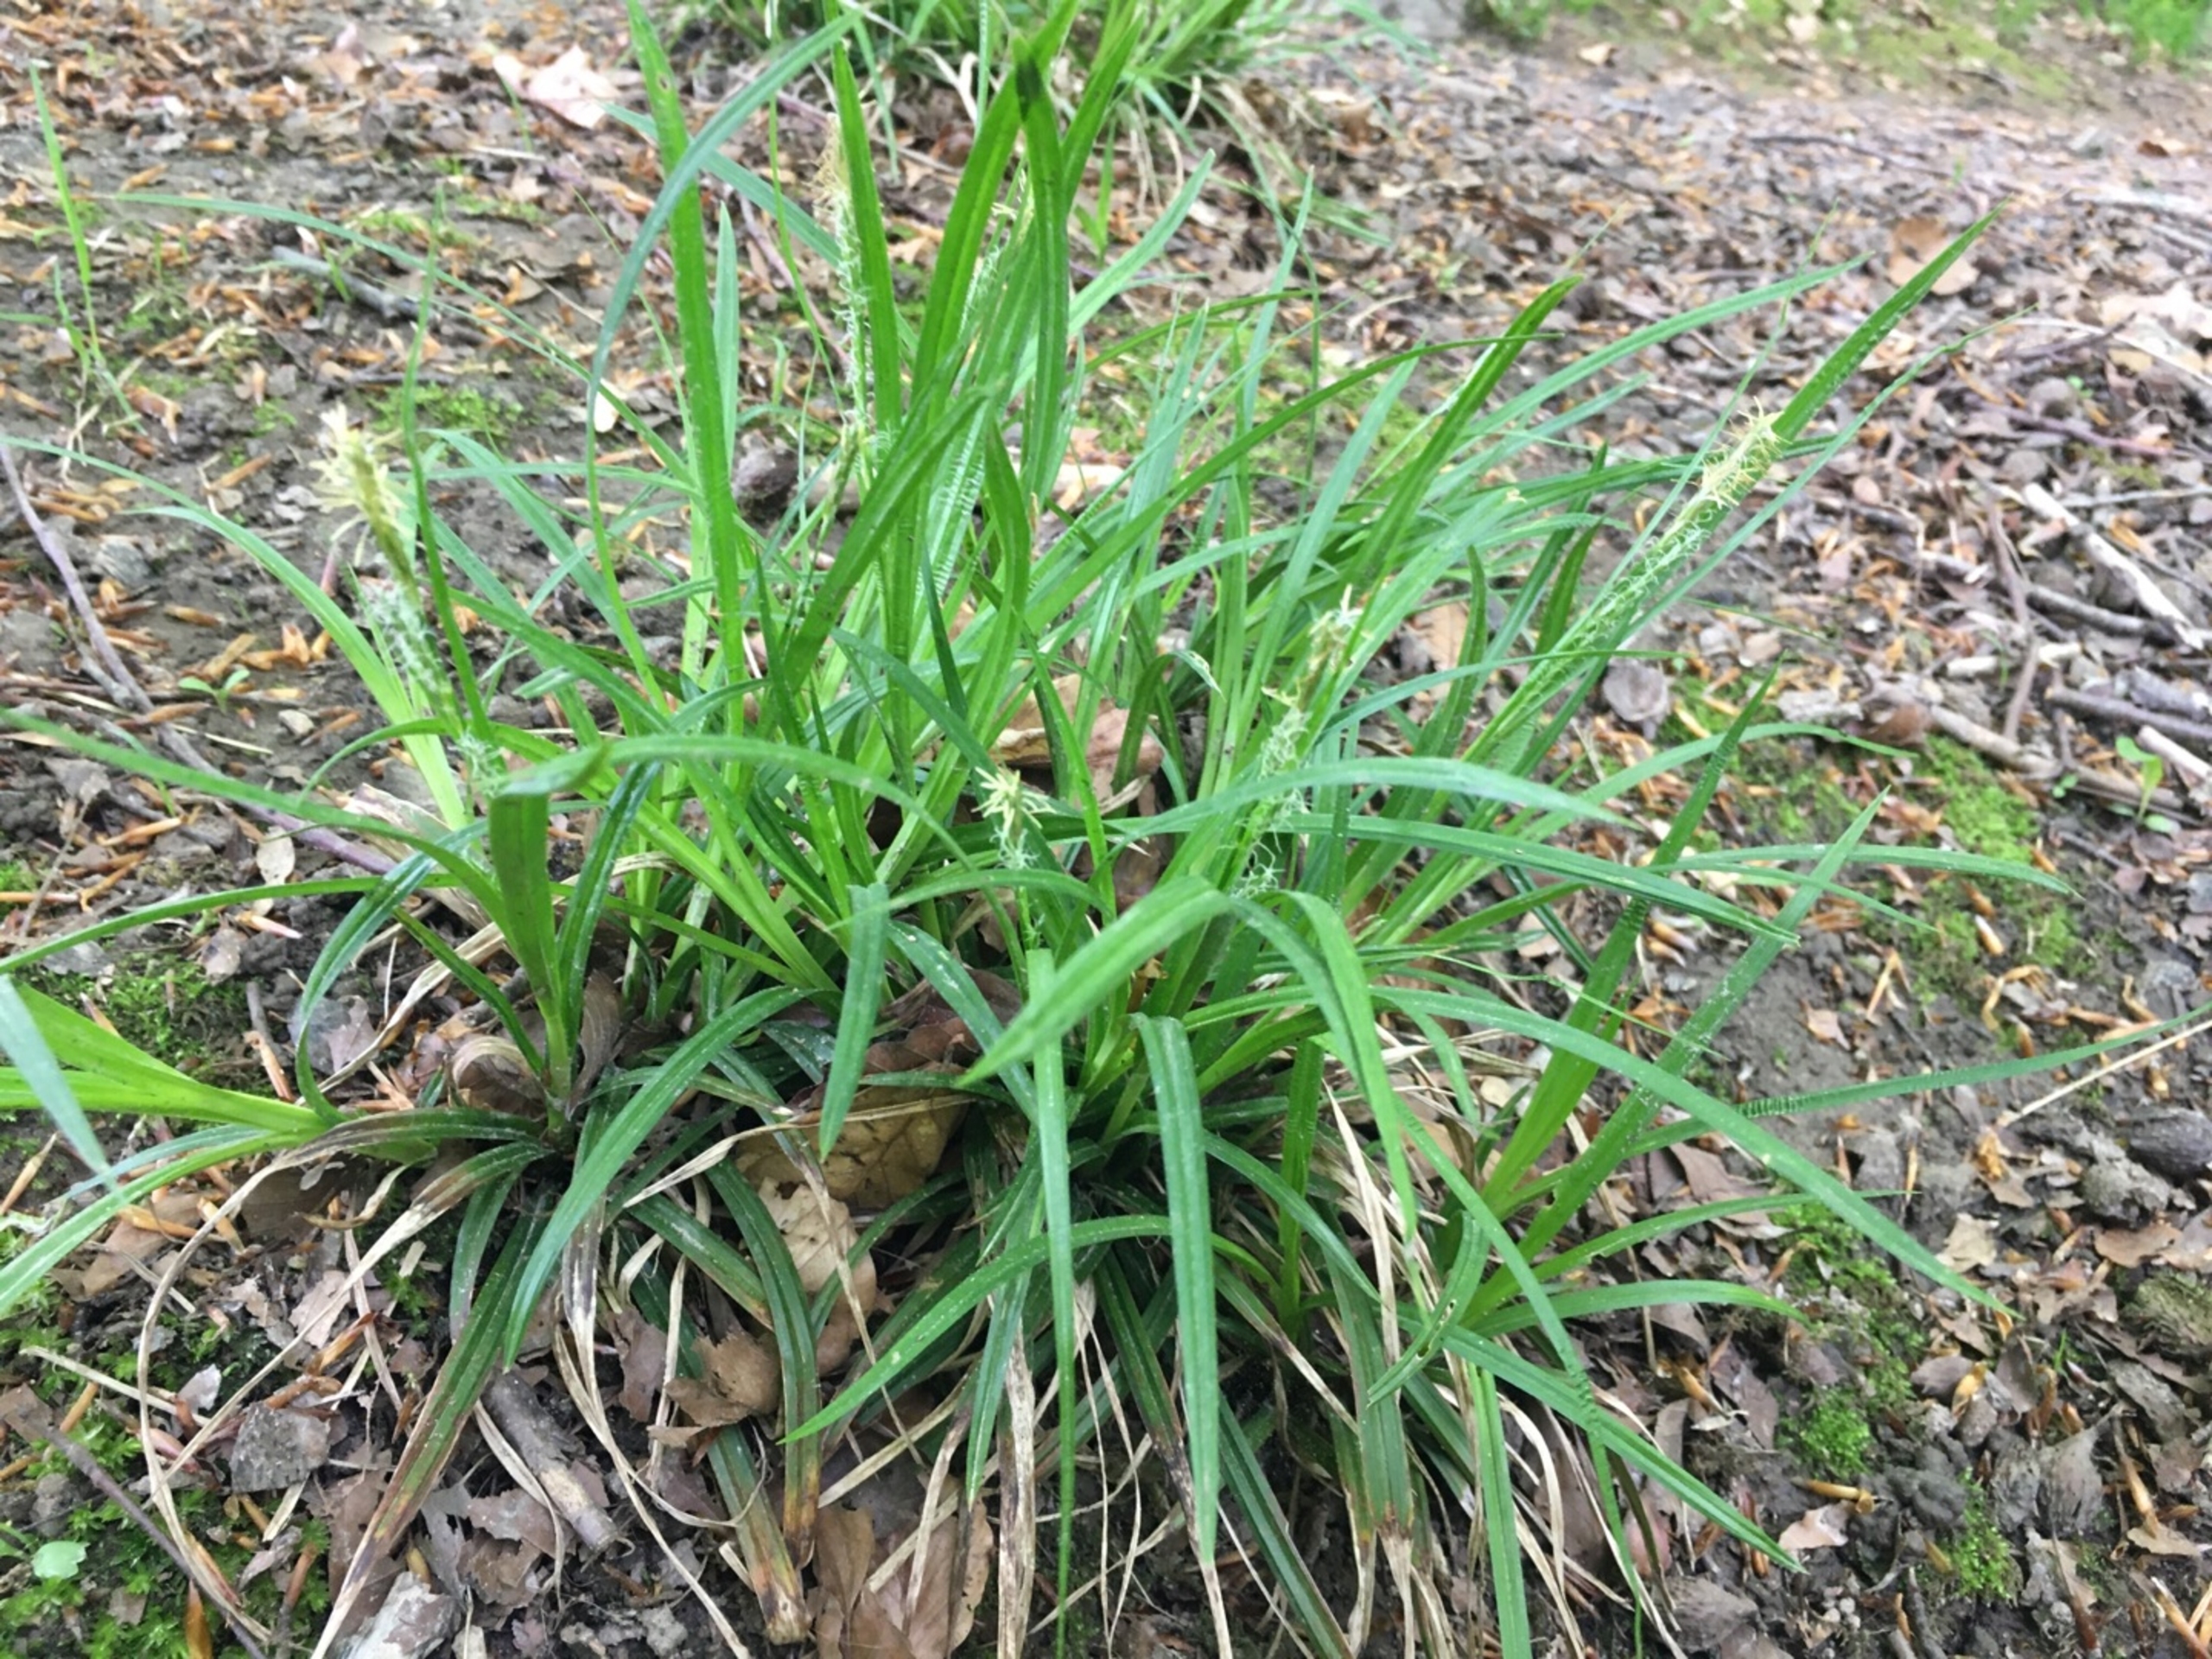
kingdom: Plantae
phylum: Tracheophyta
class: Liliopsida
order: Poales
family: Cyperaceae
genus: Carex
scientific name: Carex sylvatica
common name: Skov-star
